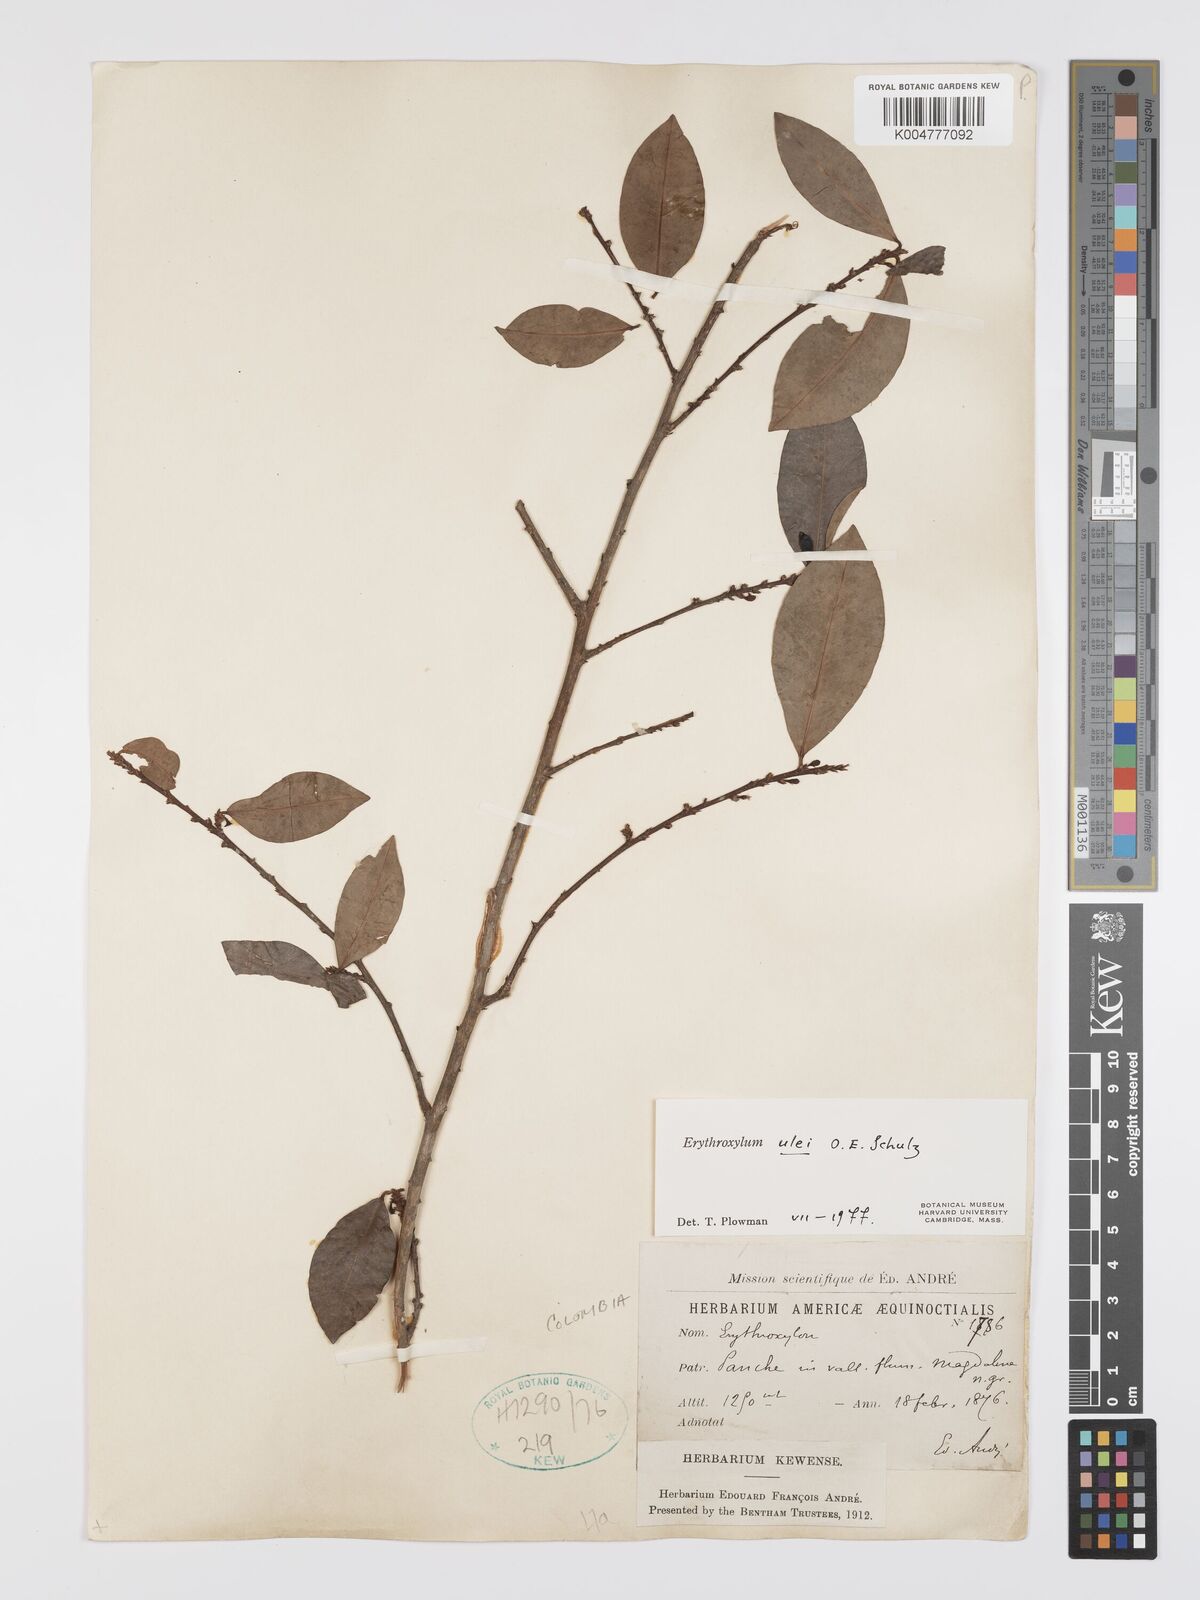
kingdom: Plantae
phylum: Tracheophyta
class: Magnoliopsida
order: Malpighiales
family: Erythroxylaceae
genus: Erythroxylum
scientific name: Erythroxylum ulei
